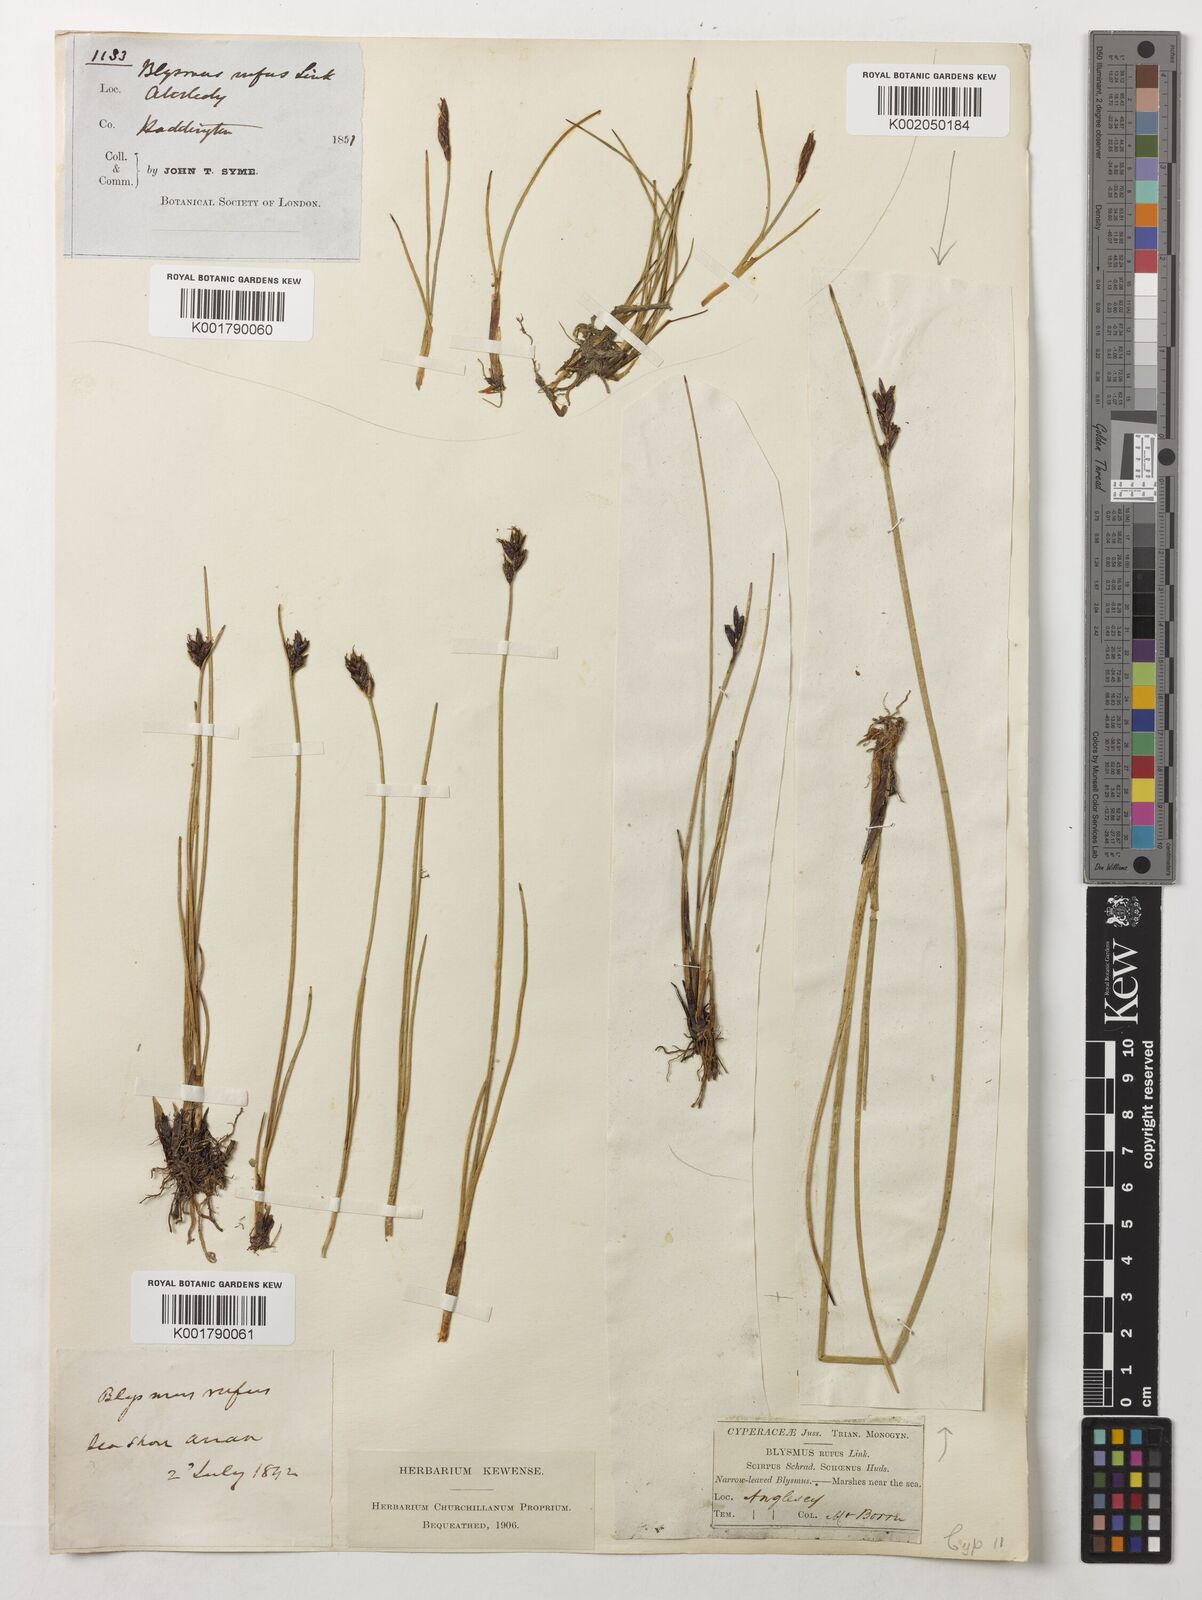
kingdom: Plantae
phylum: Tracheophyta
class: Liliopsida
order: Poales
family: Cyperaceae
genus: Blysmus
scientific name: Blysmus rufus
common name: Saltmarsh flat-sedge
